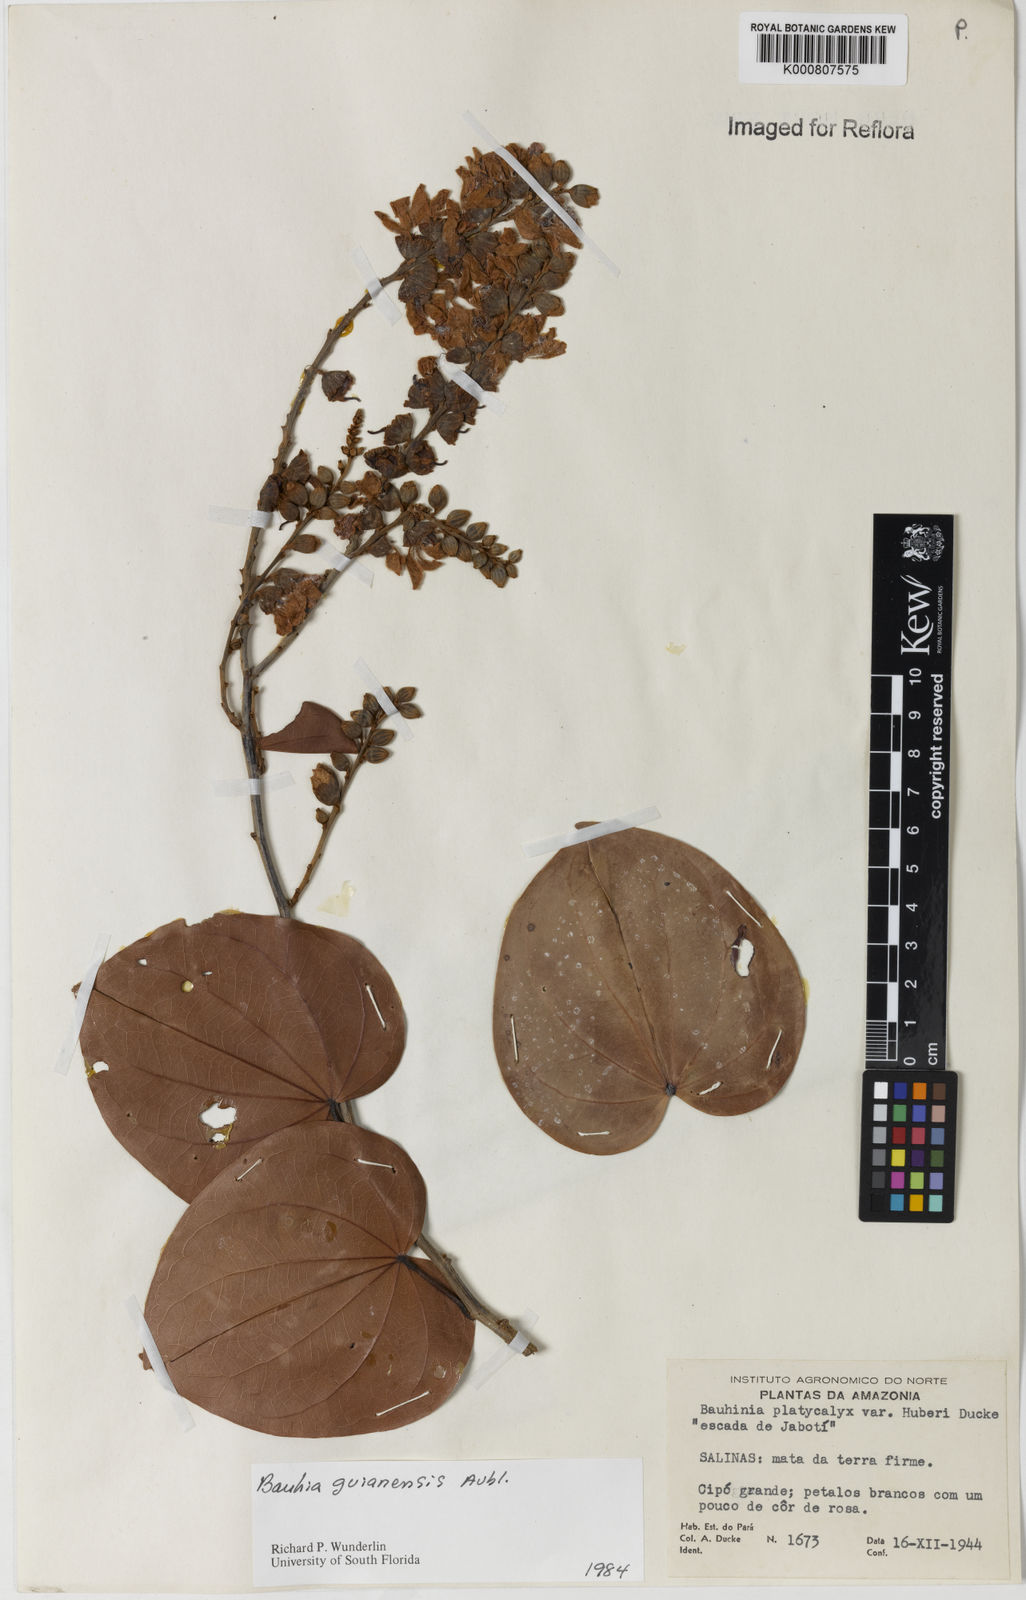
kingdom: Plantae
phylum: Tracheophyta
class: Magnoliopsida
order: Fabales
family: Fabaceae
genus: Schnella
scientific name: Schnella guianensis
